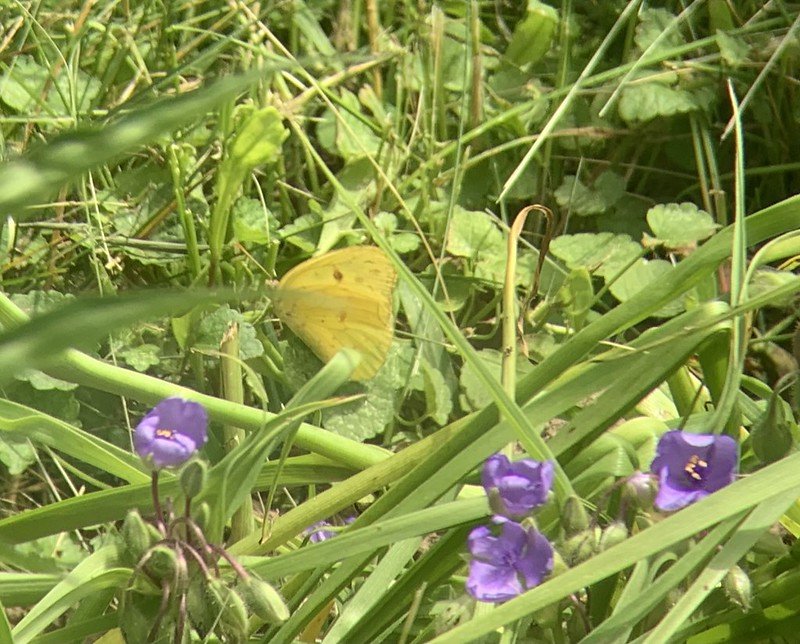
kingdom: Animalia
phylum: Arthropoda
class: Insecta
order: Lepidoptera
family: Pieridae
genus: Phoebis
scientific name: Phoebis sennae
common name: Cloudless Sulphur
